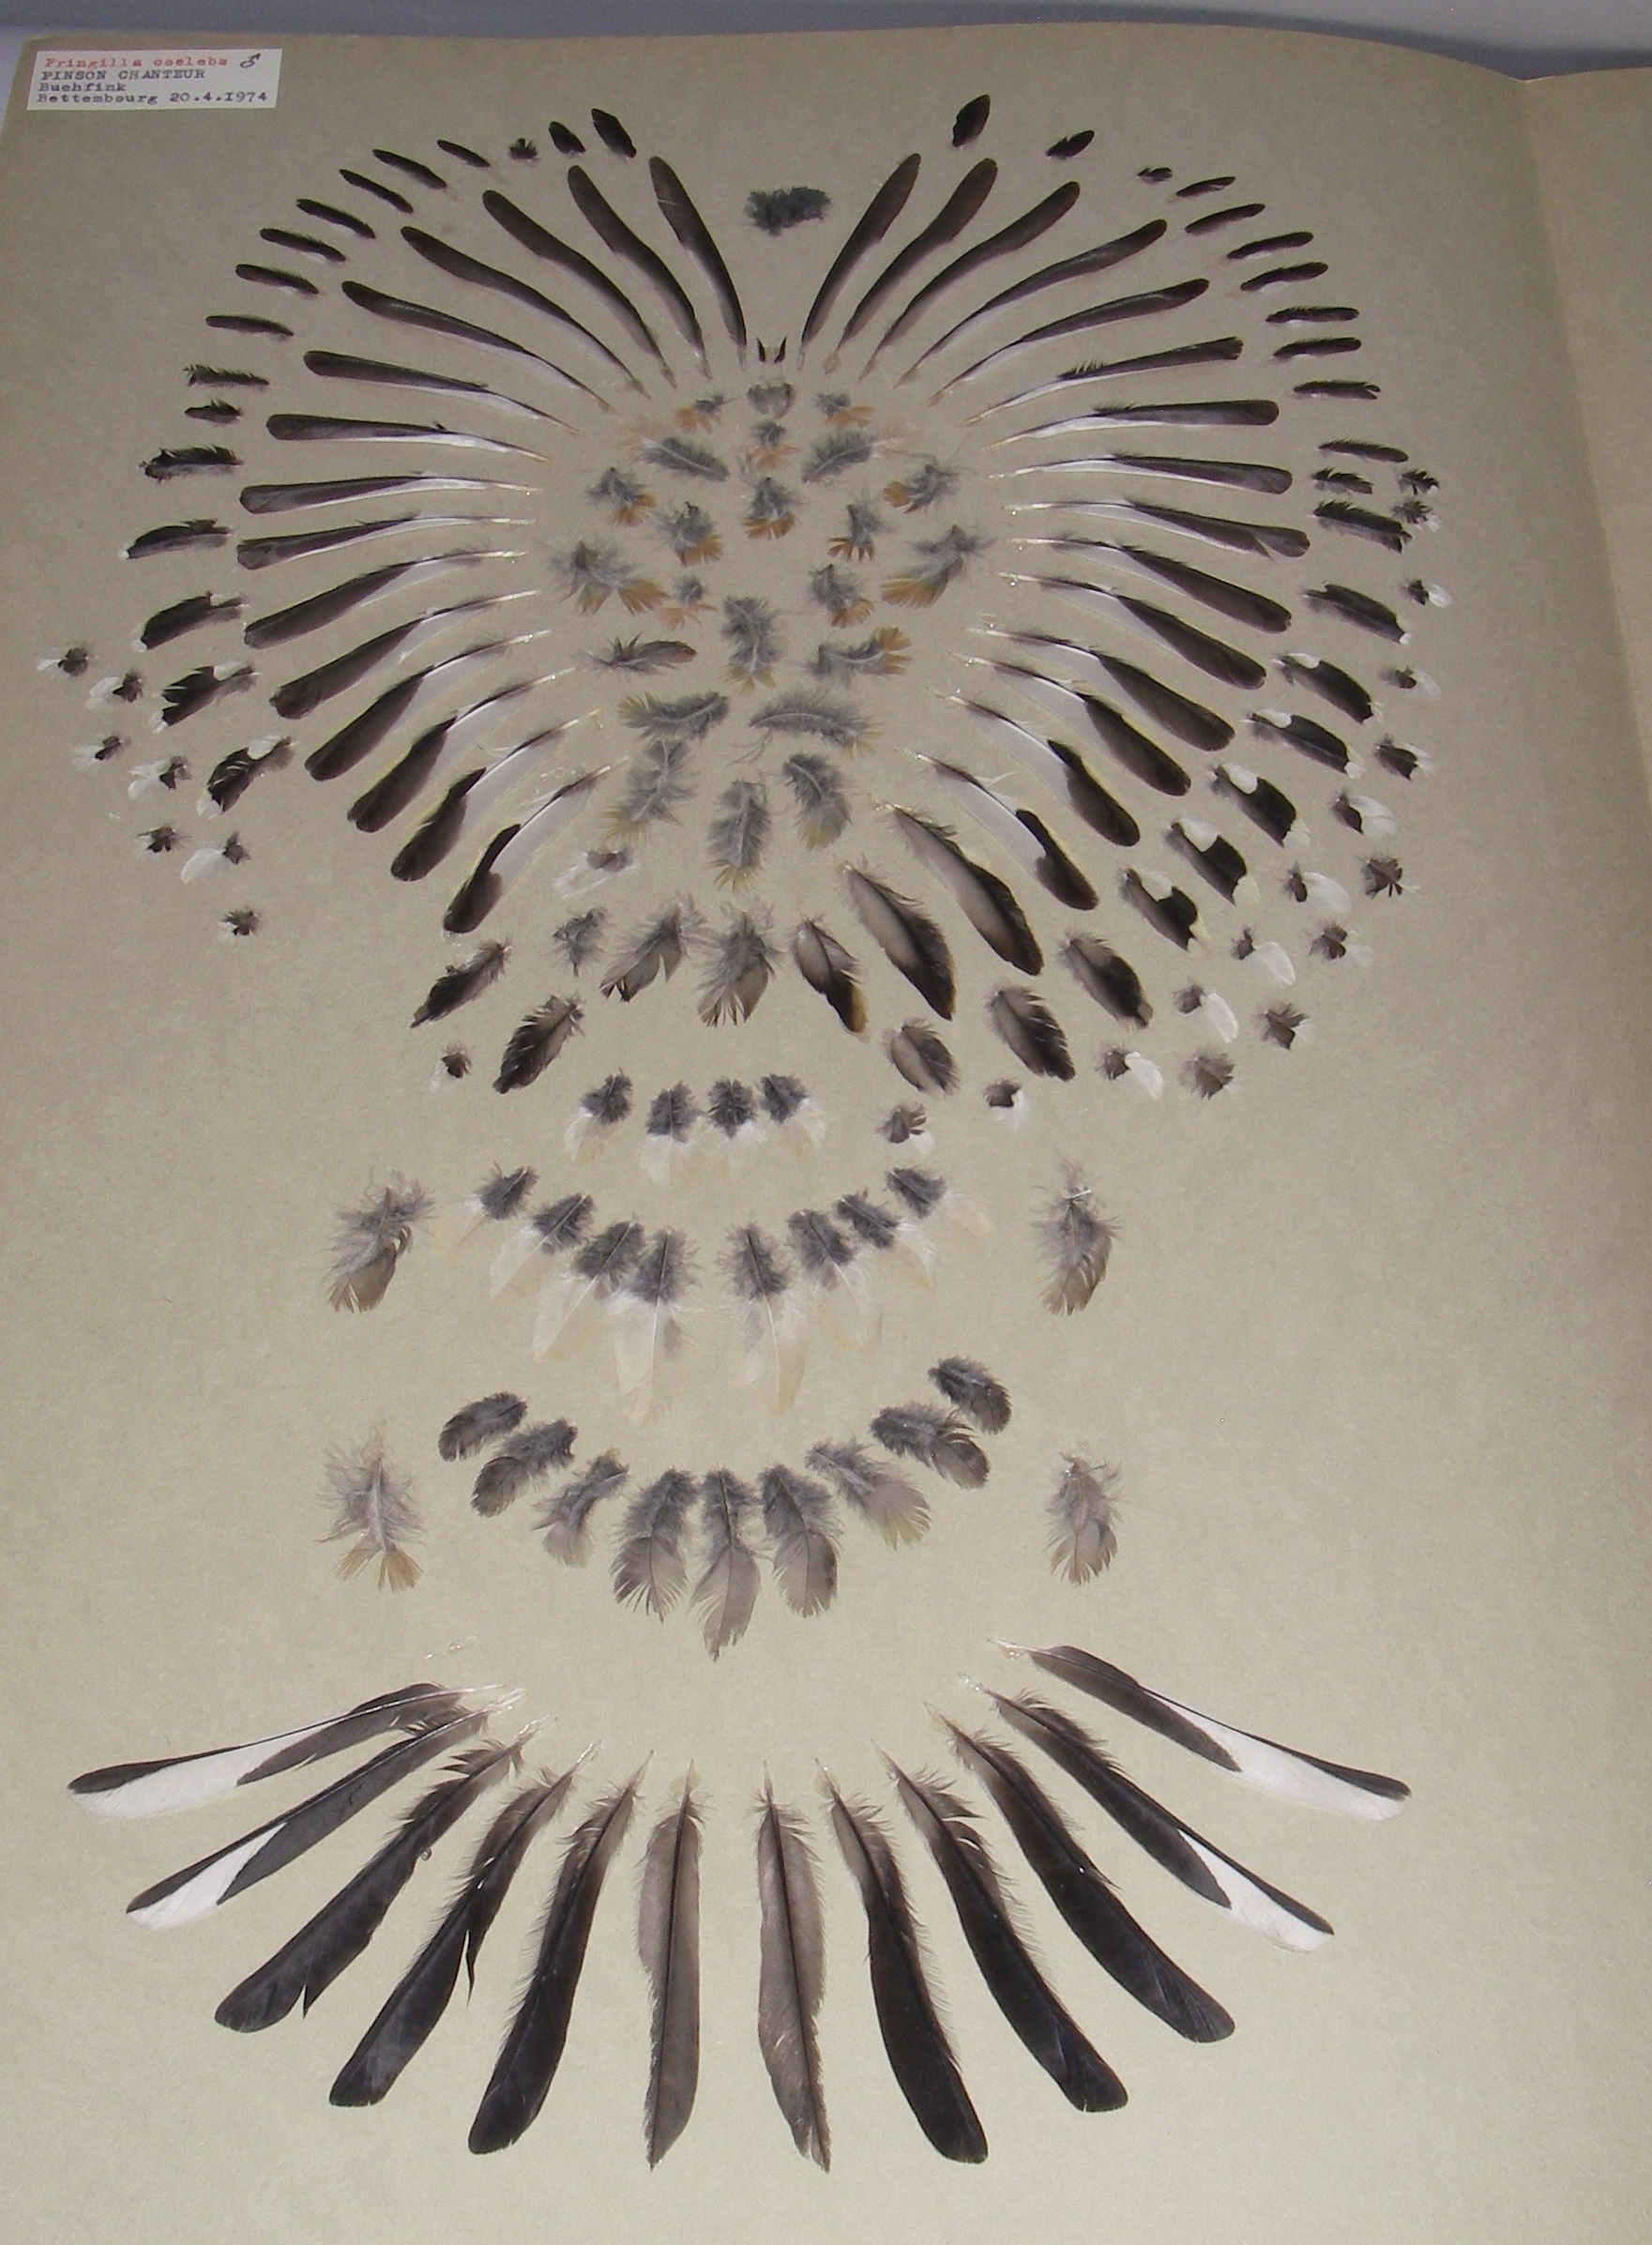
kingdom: Animalia
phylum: Chordata
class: Aves
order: Passeriformes
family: Fringillidae
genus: Fringilla
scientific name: Fringilla coelebs
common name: Common chaffinch
